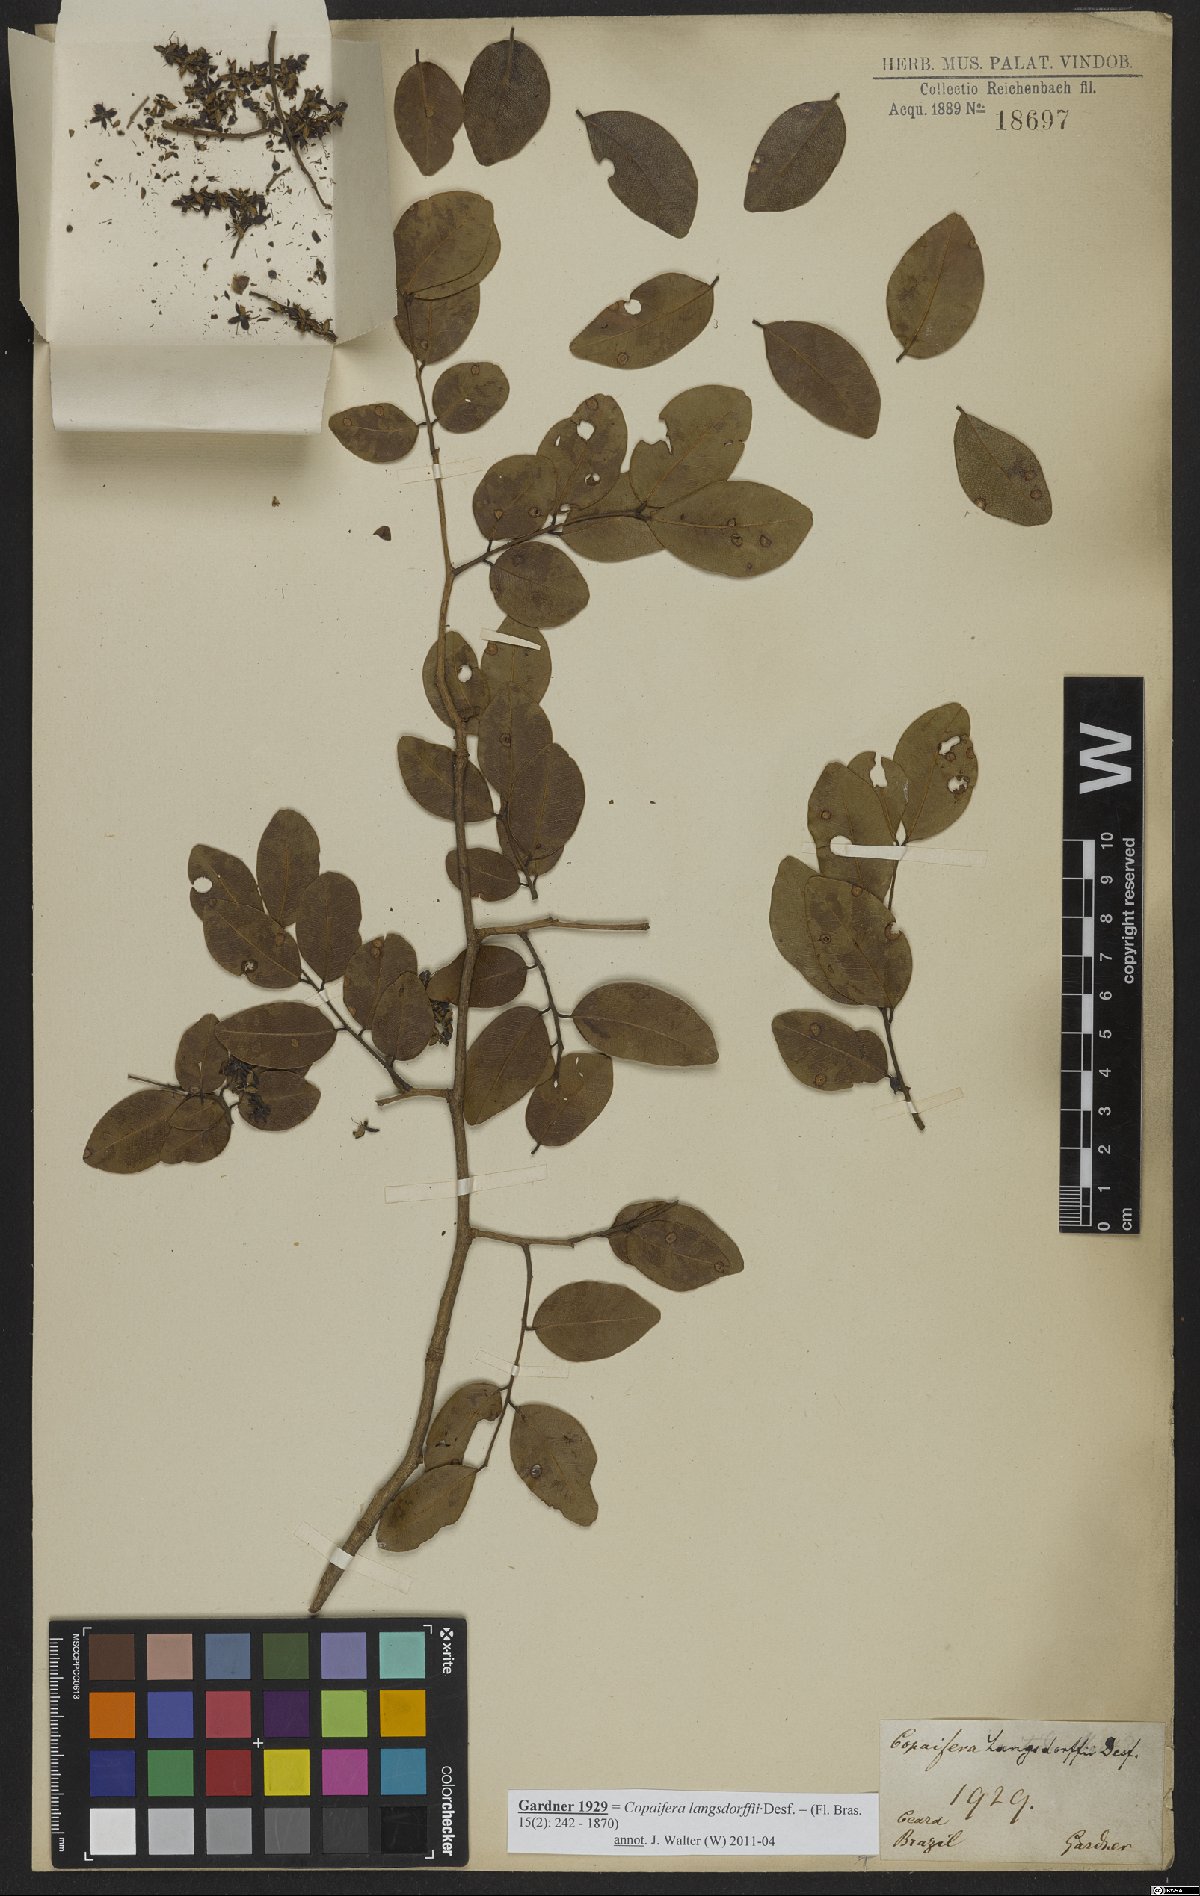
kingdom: Plantae
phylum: Tracheophyta
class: Magnoliopsida
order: Fabales
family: Fabaceae
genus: Copaifera
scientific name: Copaifera langsdorffii
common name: Brazilian diesel tree
